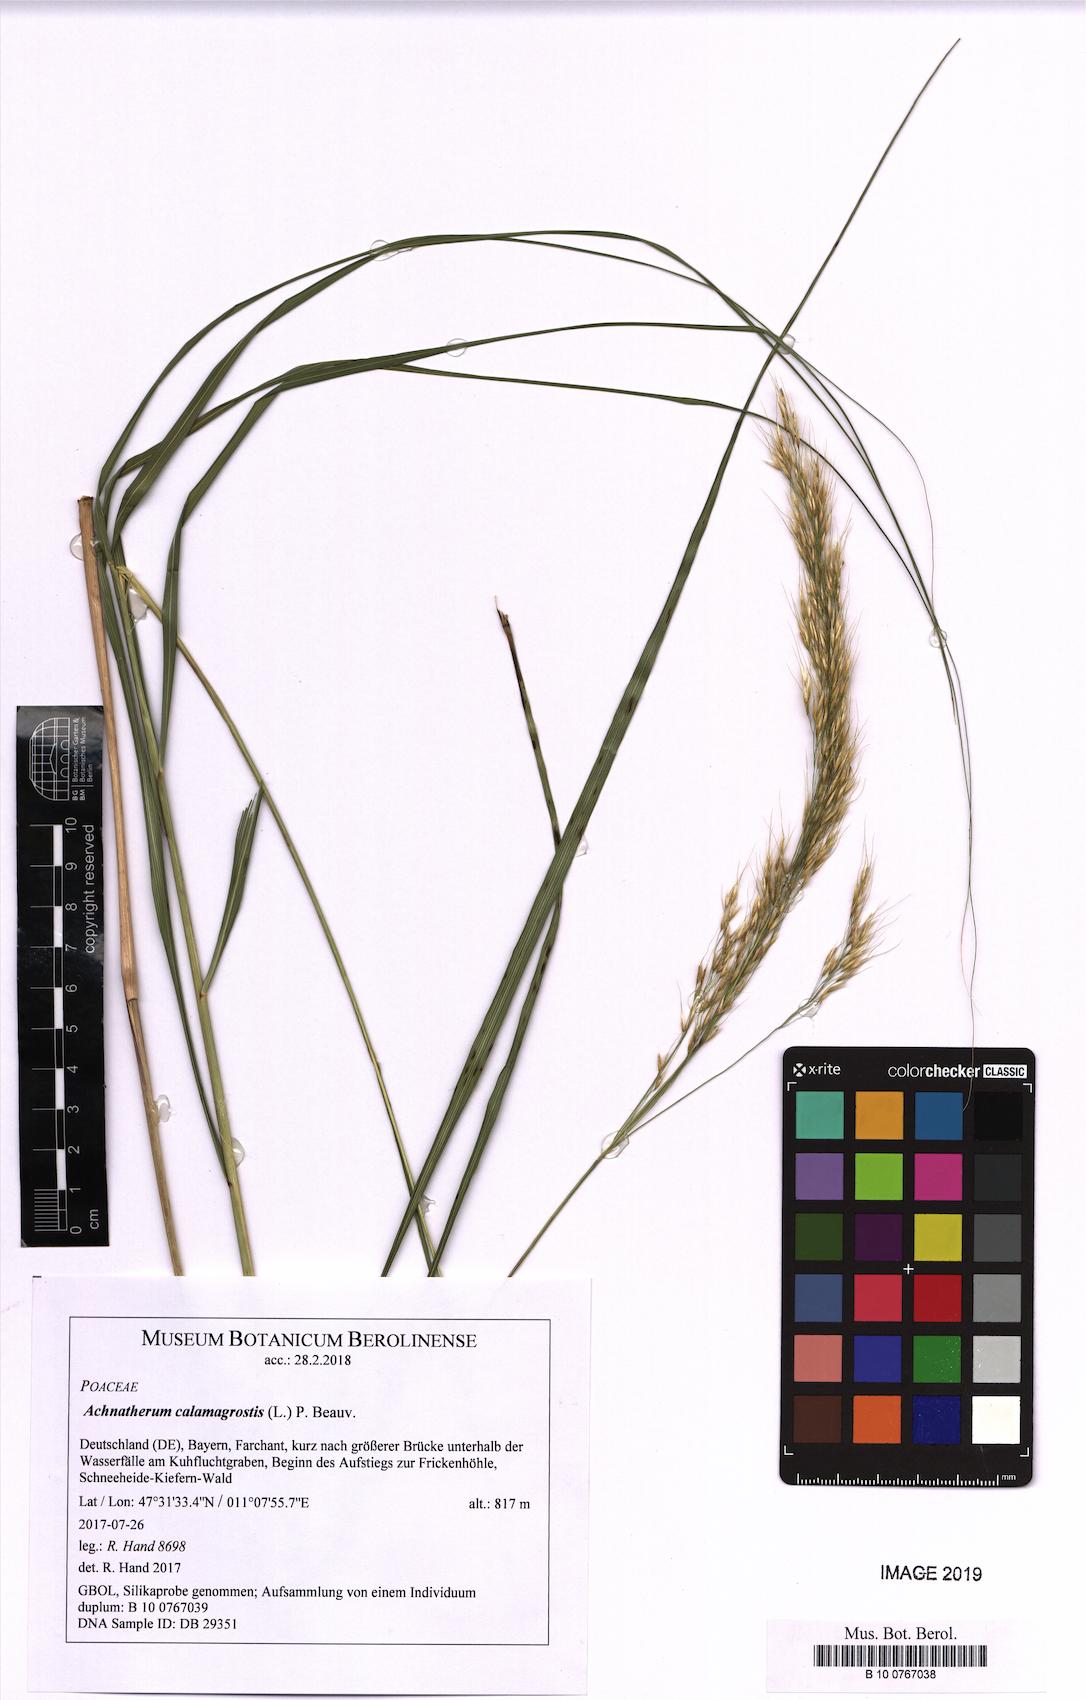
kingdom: Plantae
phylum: Tracheophyta
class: Liliopsida
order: Poales
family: Poaceae
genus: Achnatherum
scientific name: Achnatherum calamagrostis
